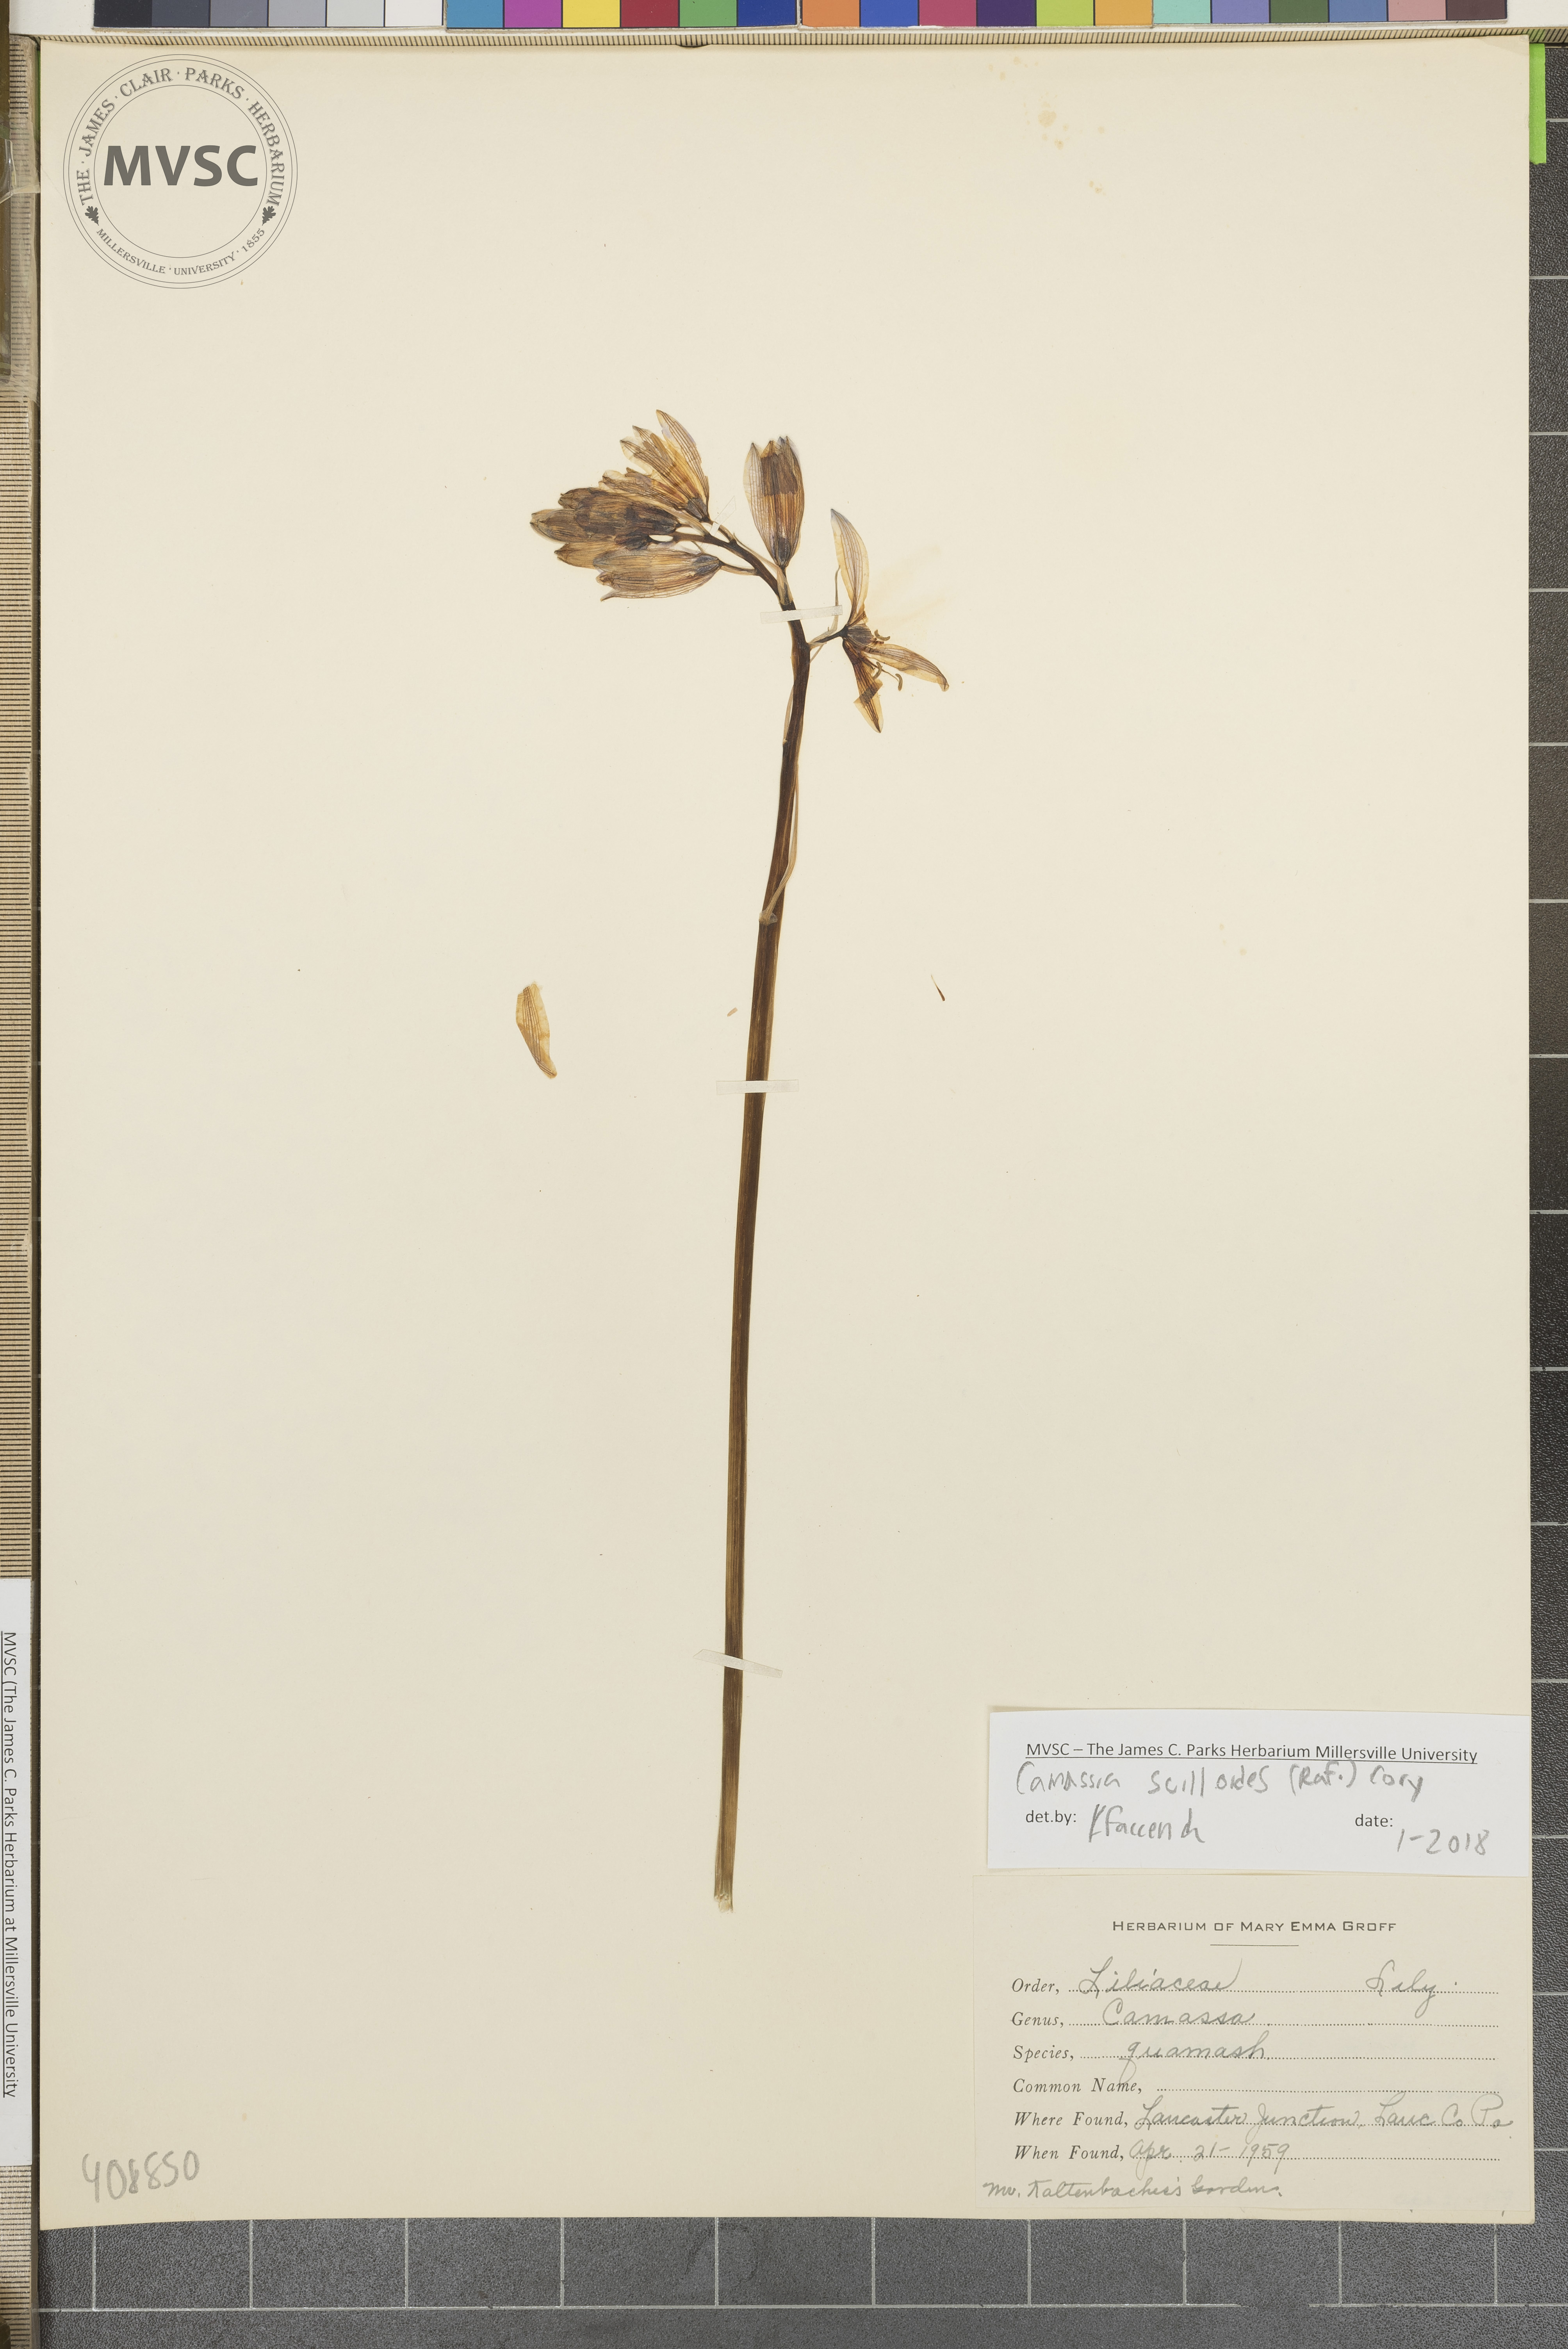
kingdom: Plantae
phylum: Tracheophyta
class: Liliopsida
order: Asparagales
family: Asparagaceae
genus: Camassia
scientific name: Camassia scilloides
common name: Wild hyacinth
